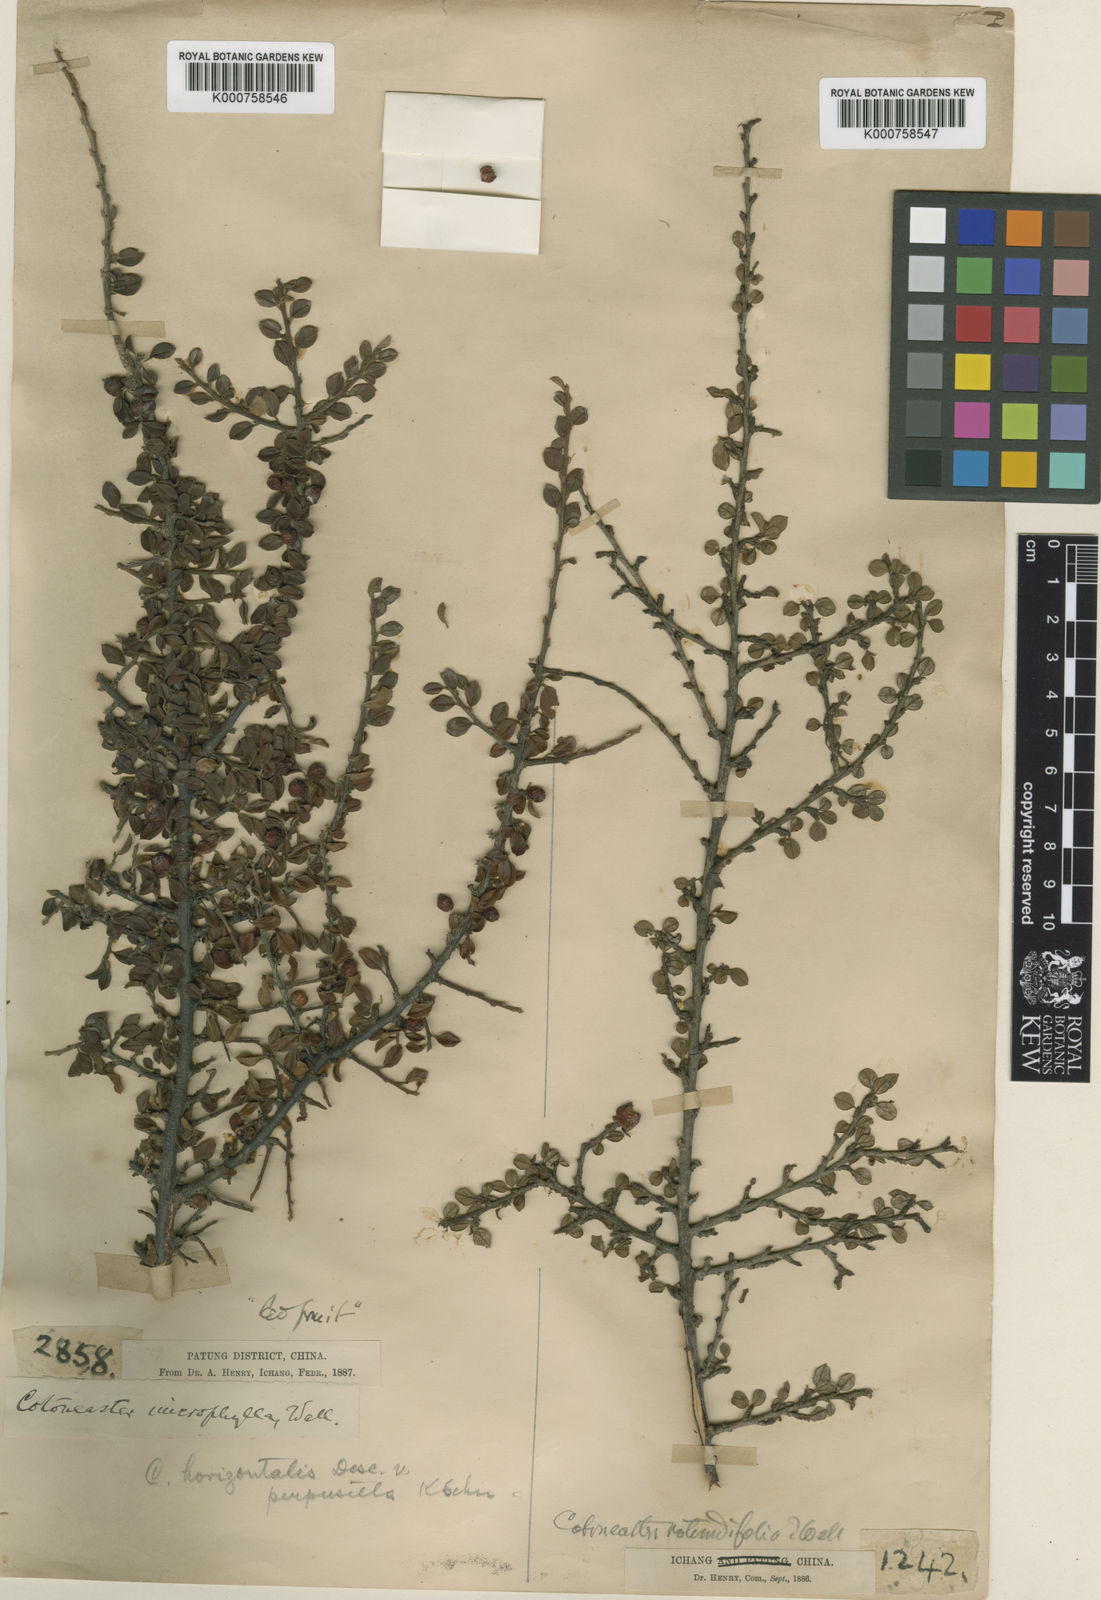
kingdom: Plantae
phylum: Tracheophyta
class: Magnoliopsida
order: Rosales
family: Rosaceae
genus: Cotoneaster
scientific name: Cotoneaster
